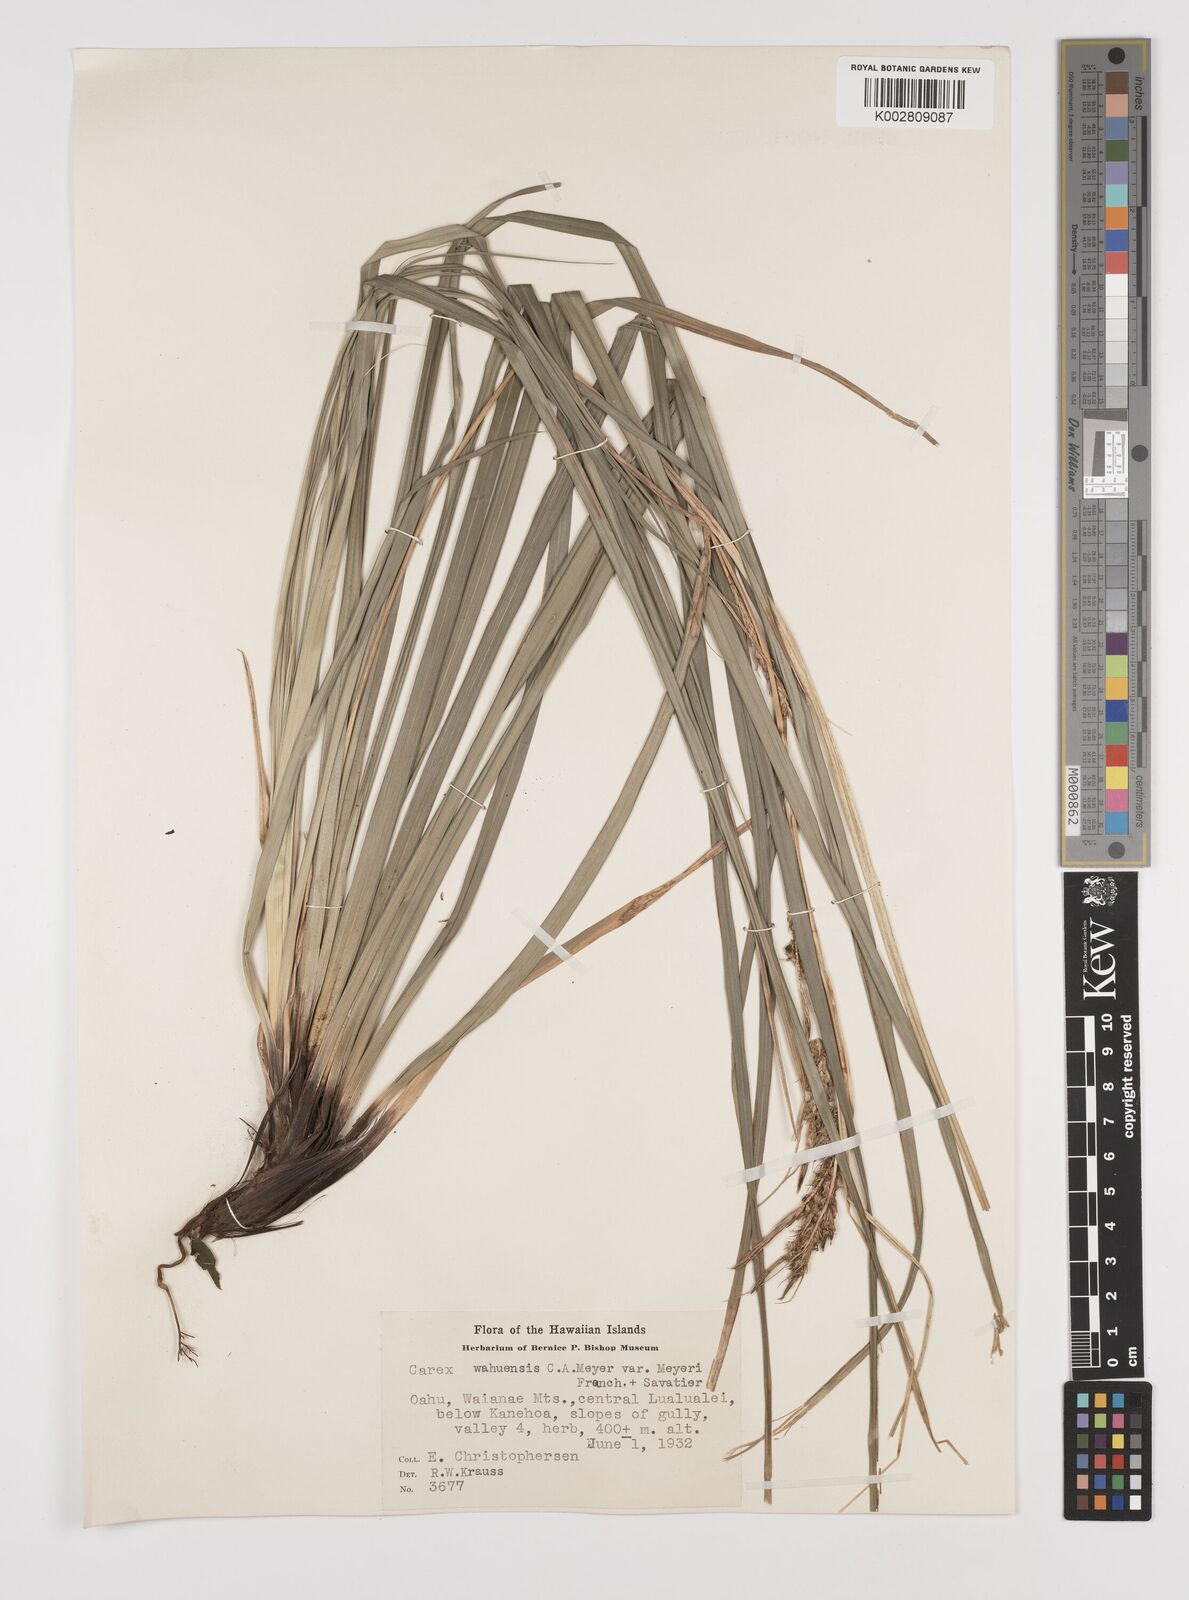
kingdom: Plantae
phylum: Tracheophyta
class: Liliopsida
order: Poales
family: Cyperaceae
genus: Carex
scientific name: Carex wahuensis
